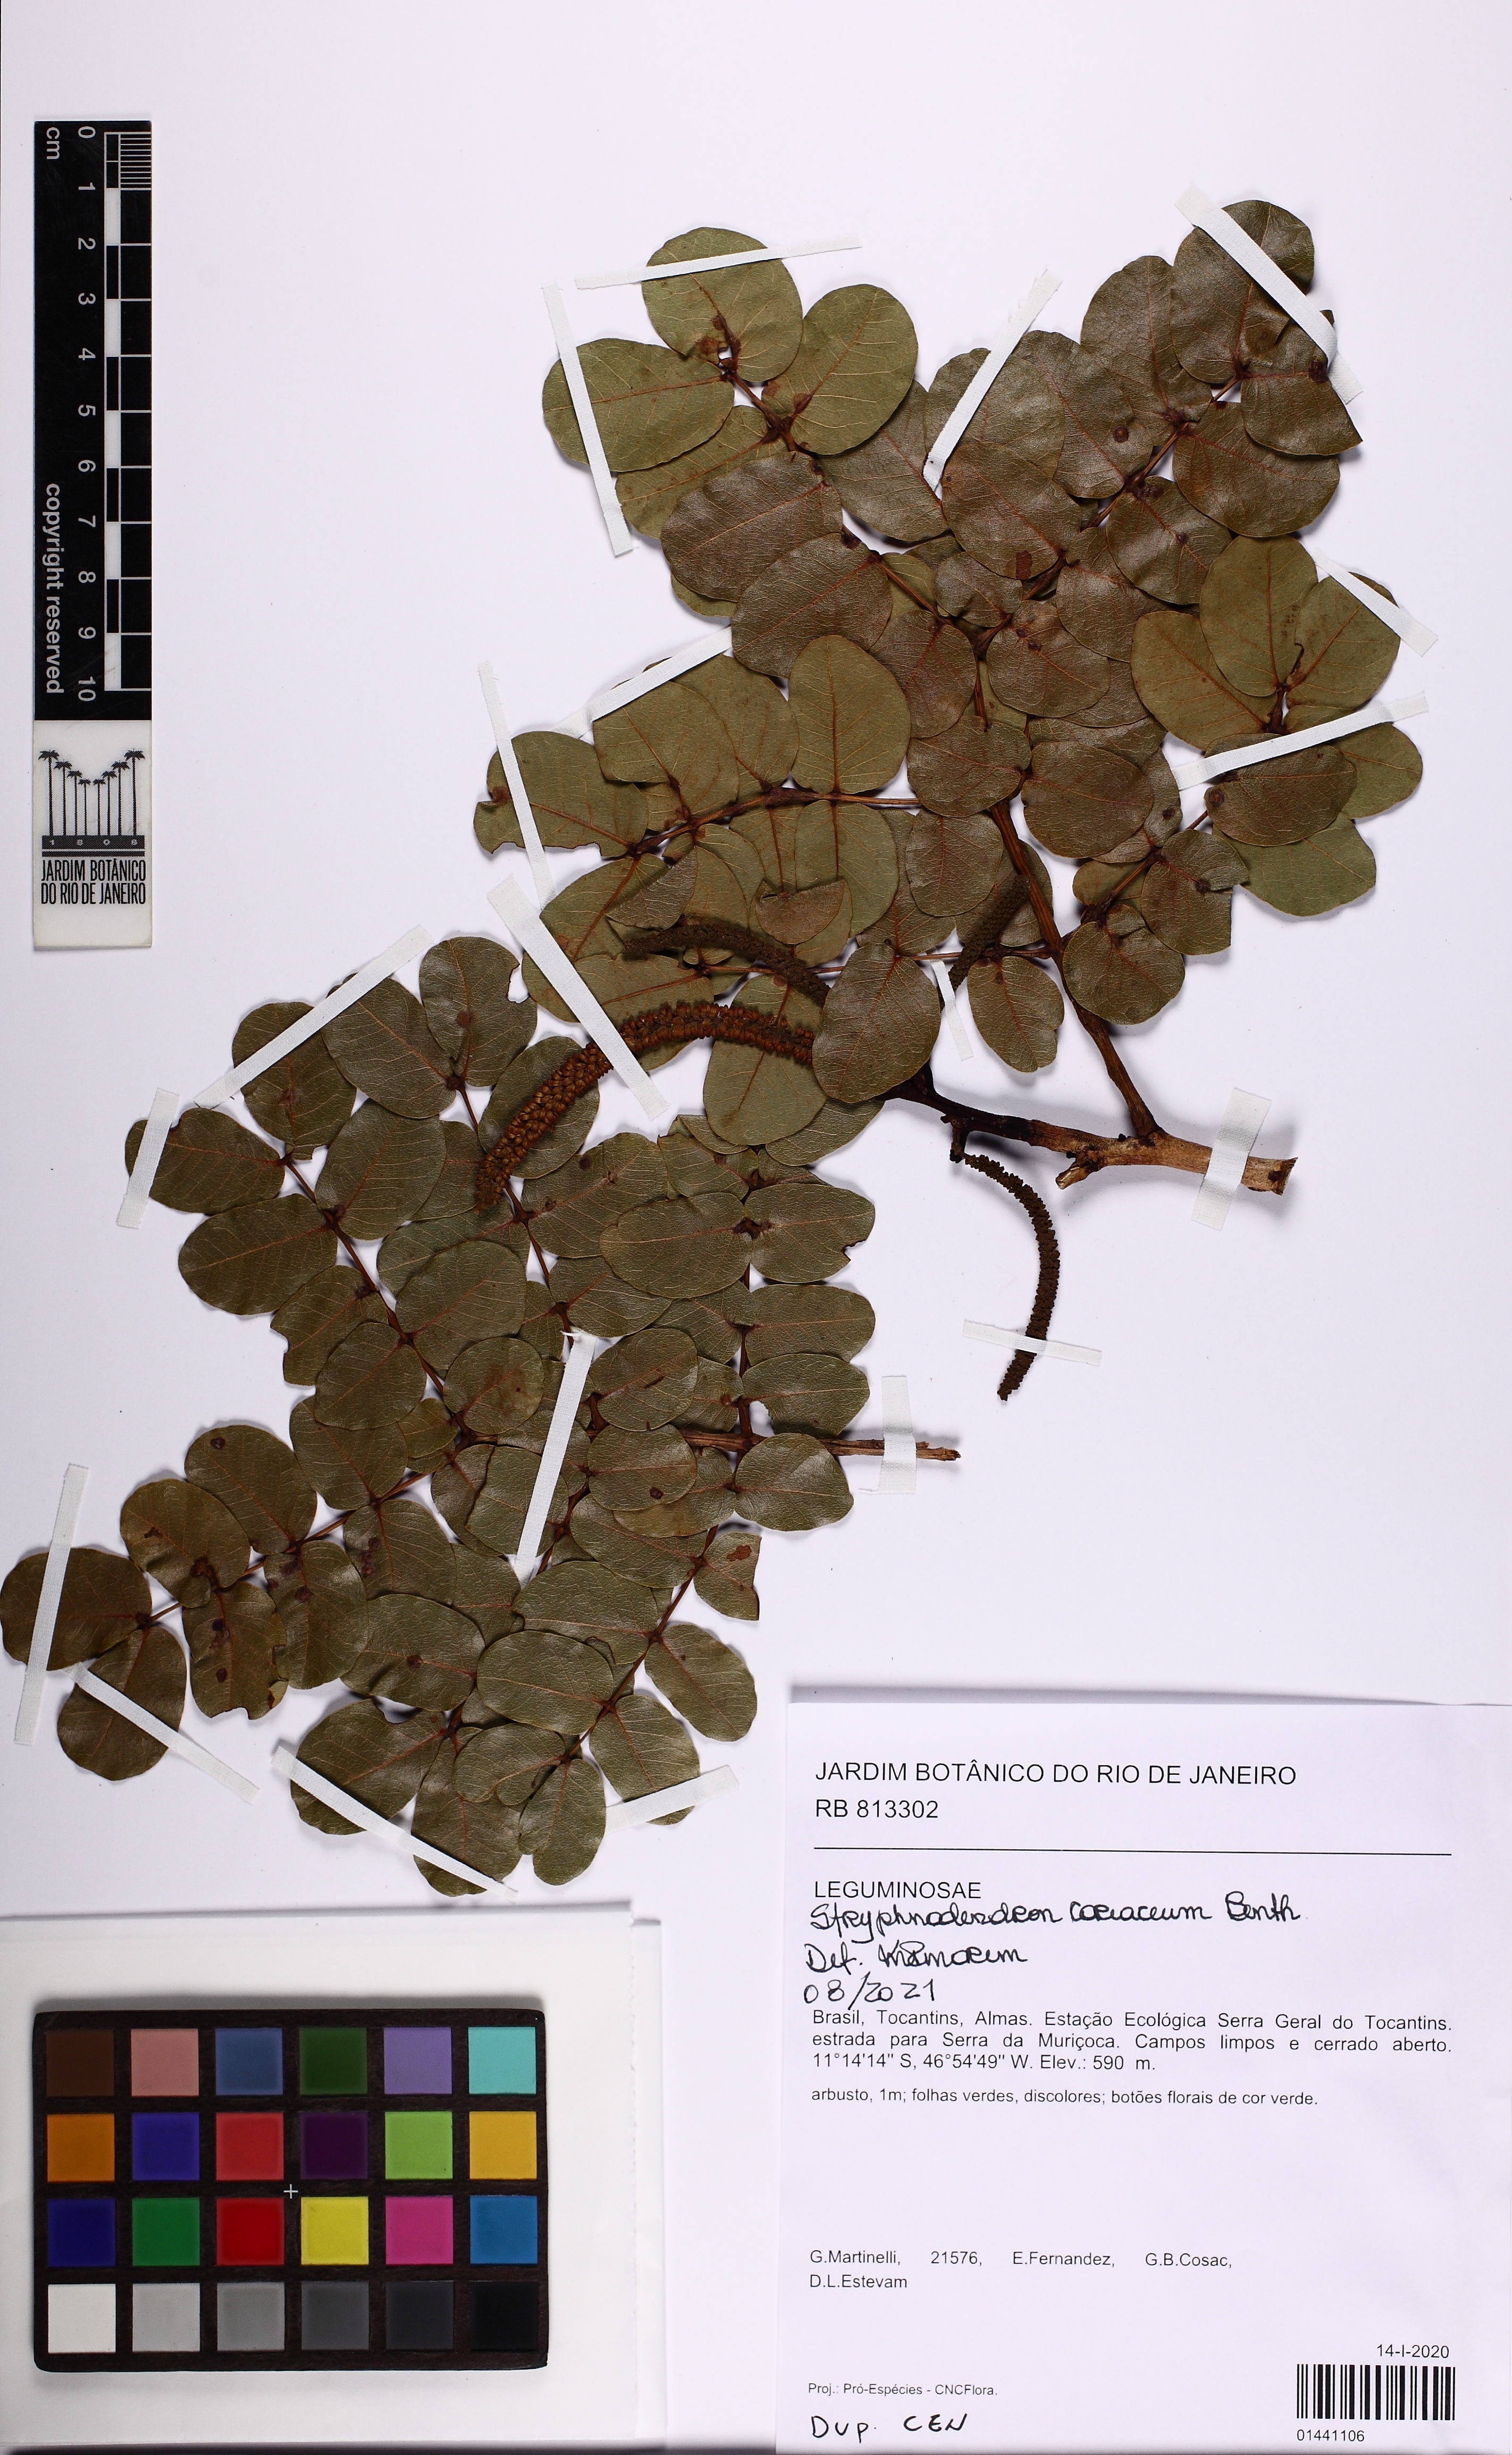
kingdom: Plantae
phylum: Tracheophyta
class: Magnoliopsida
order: Fabales
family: Fabaceae
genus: Stryphnodendron
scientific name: Stryphnodendron coriaceum
